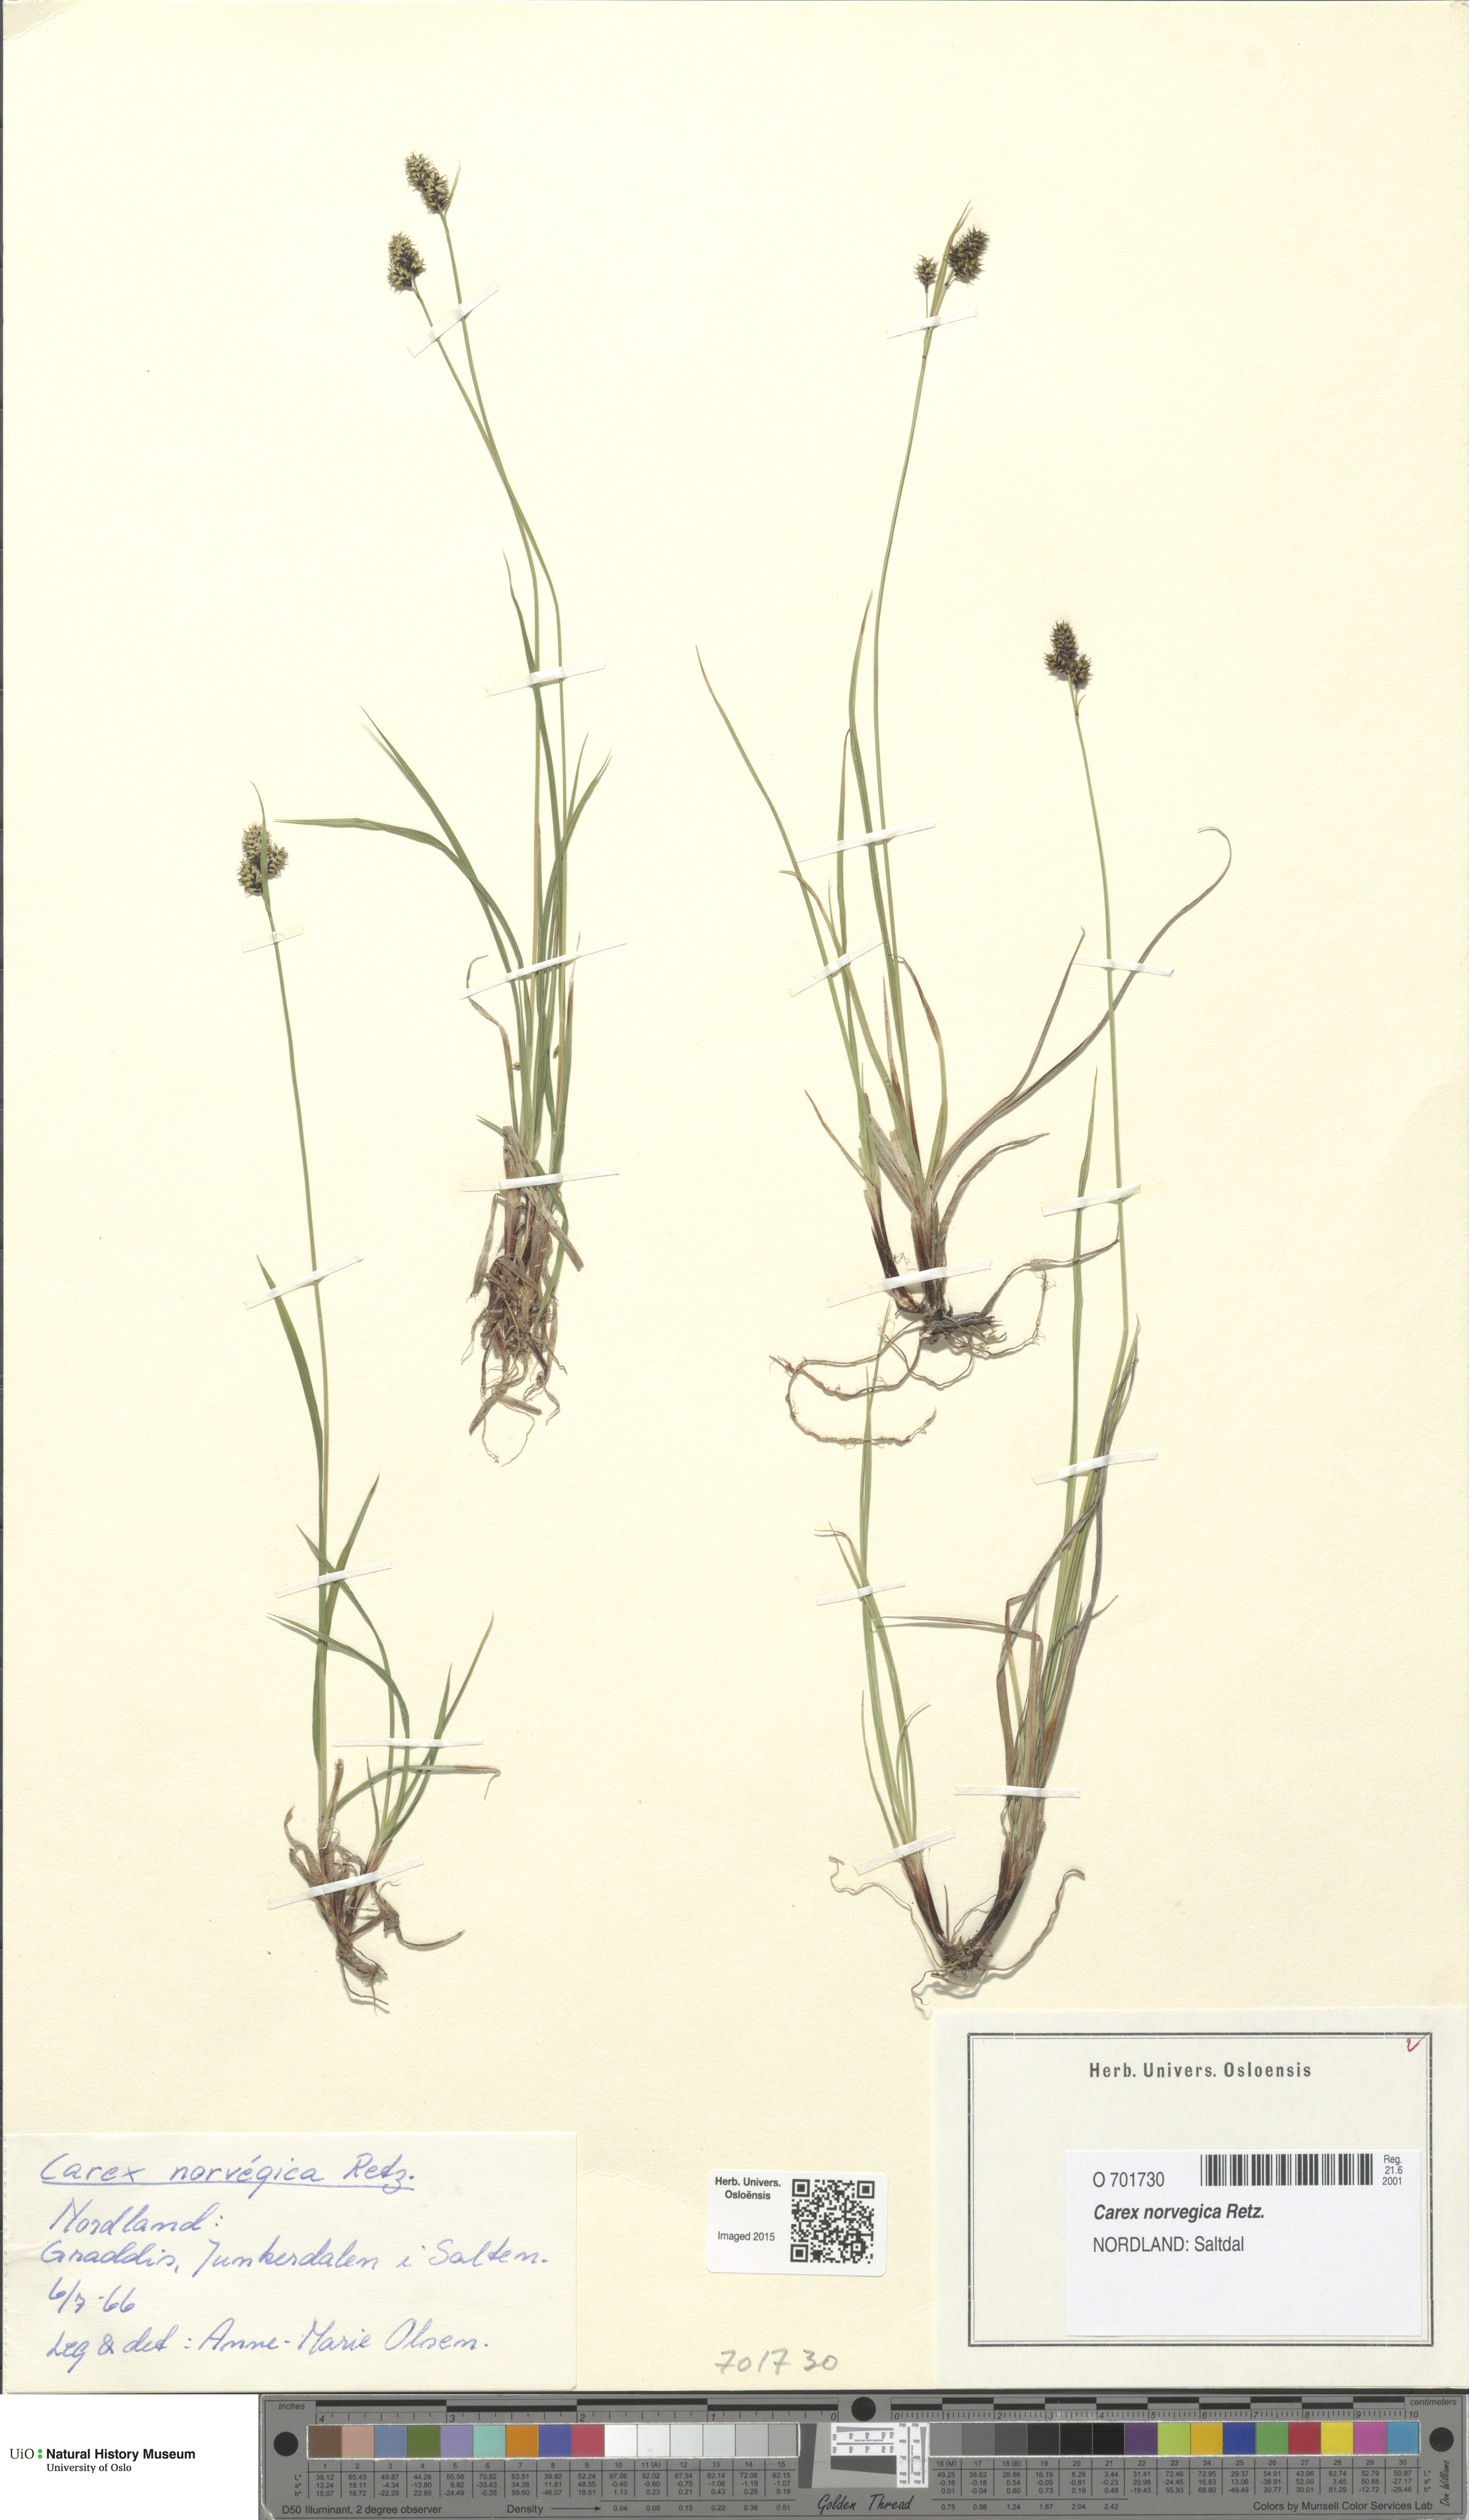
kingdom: Plantae
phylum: Tracheophyta
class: Liliopsida
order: Poales
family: Cyperaceae
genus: Carex
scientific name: Carex norvegica
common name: Close-headed alpine-sedge
